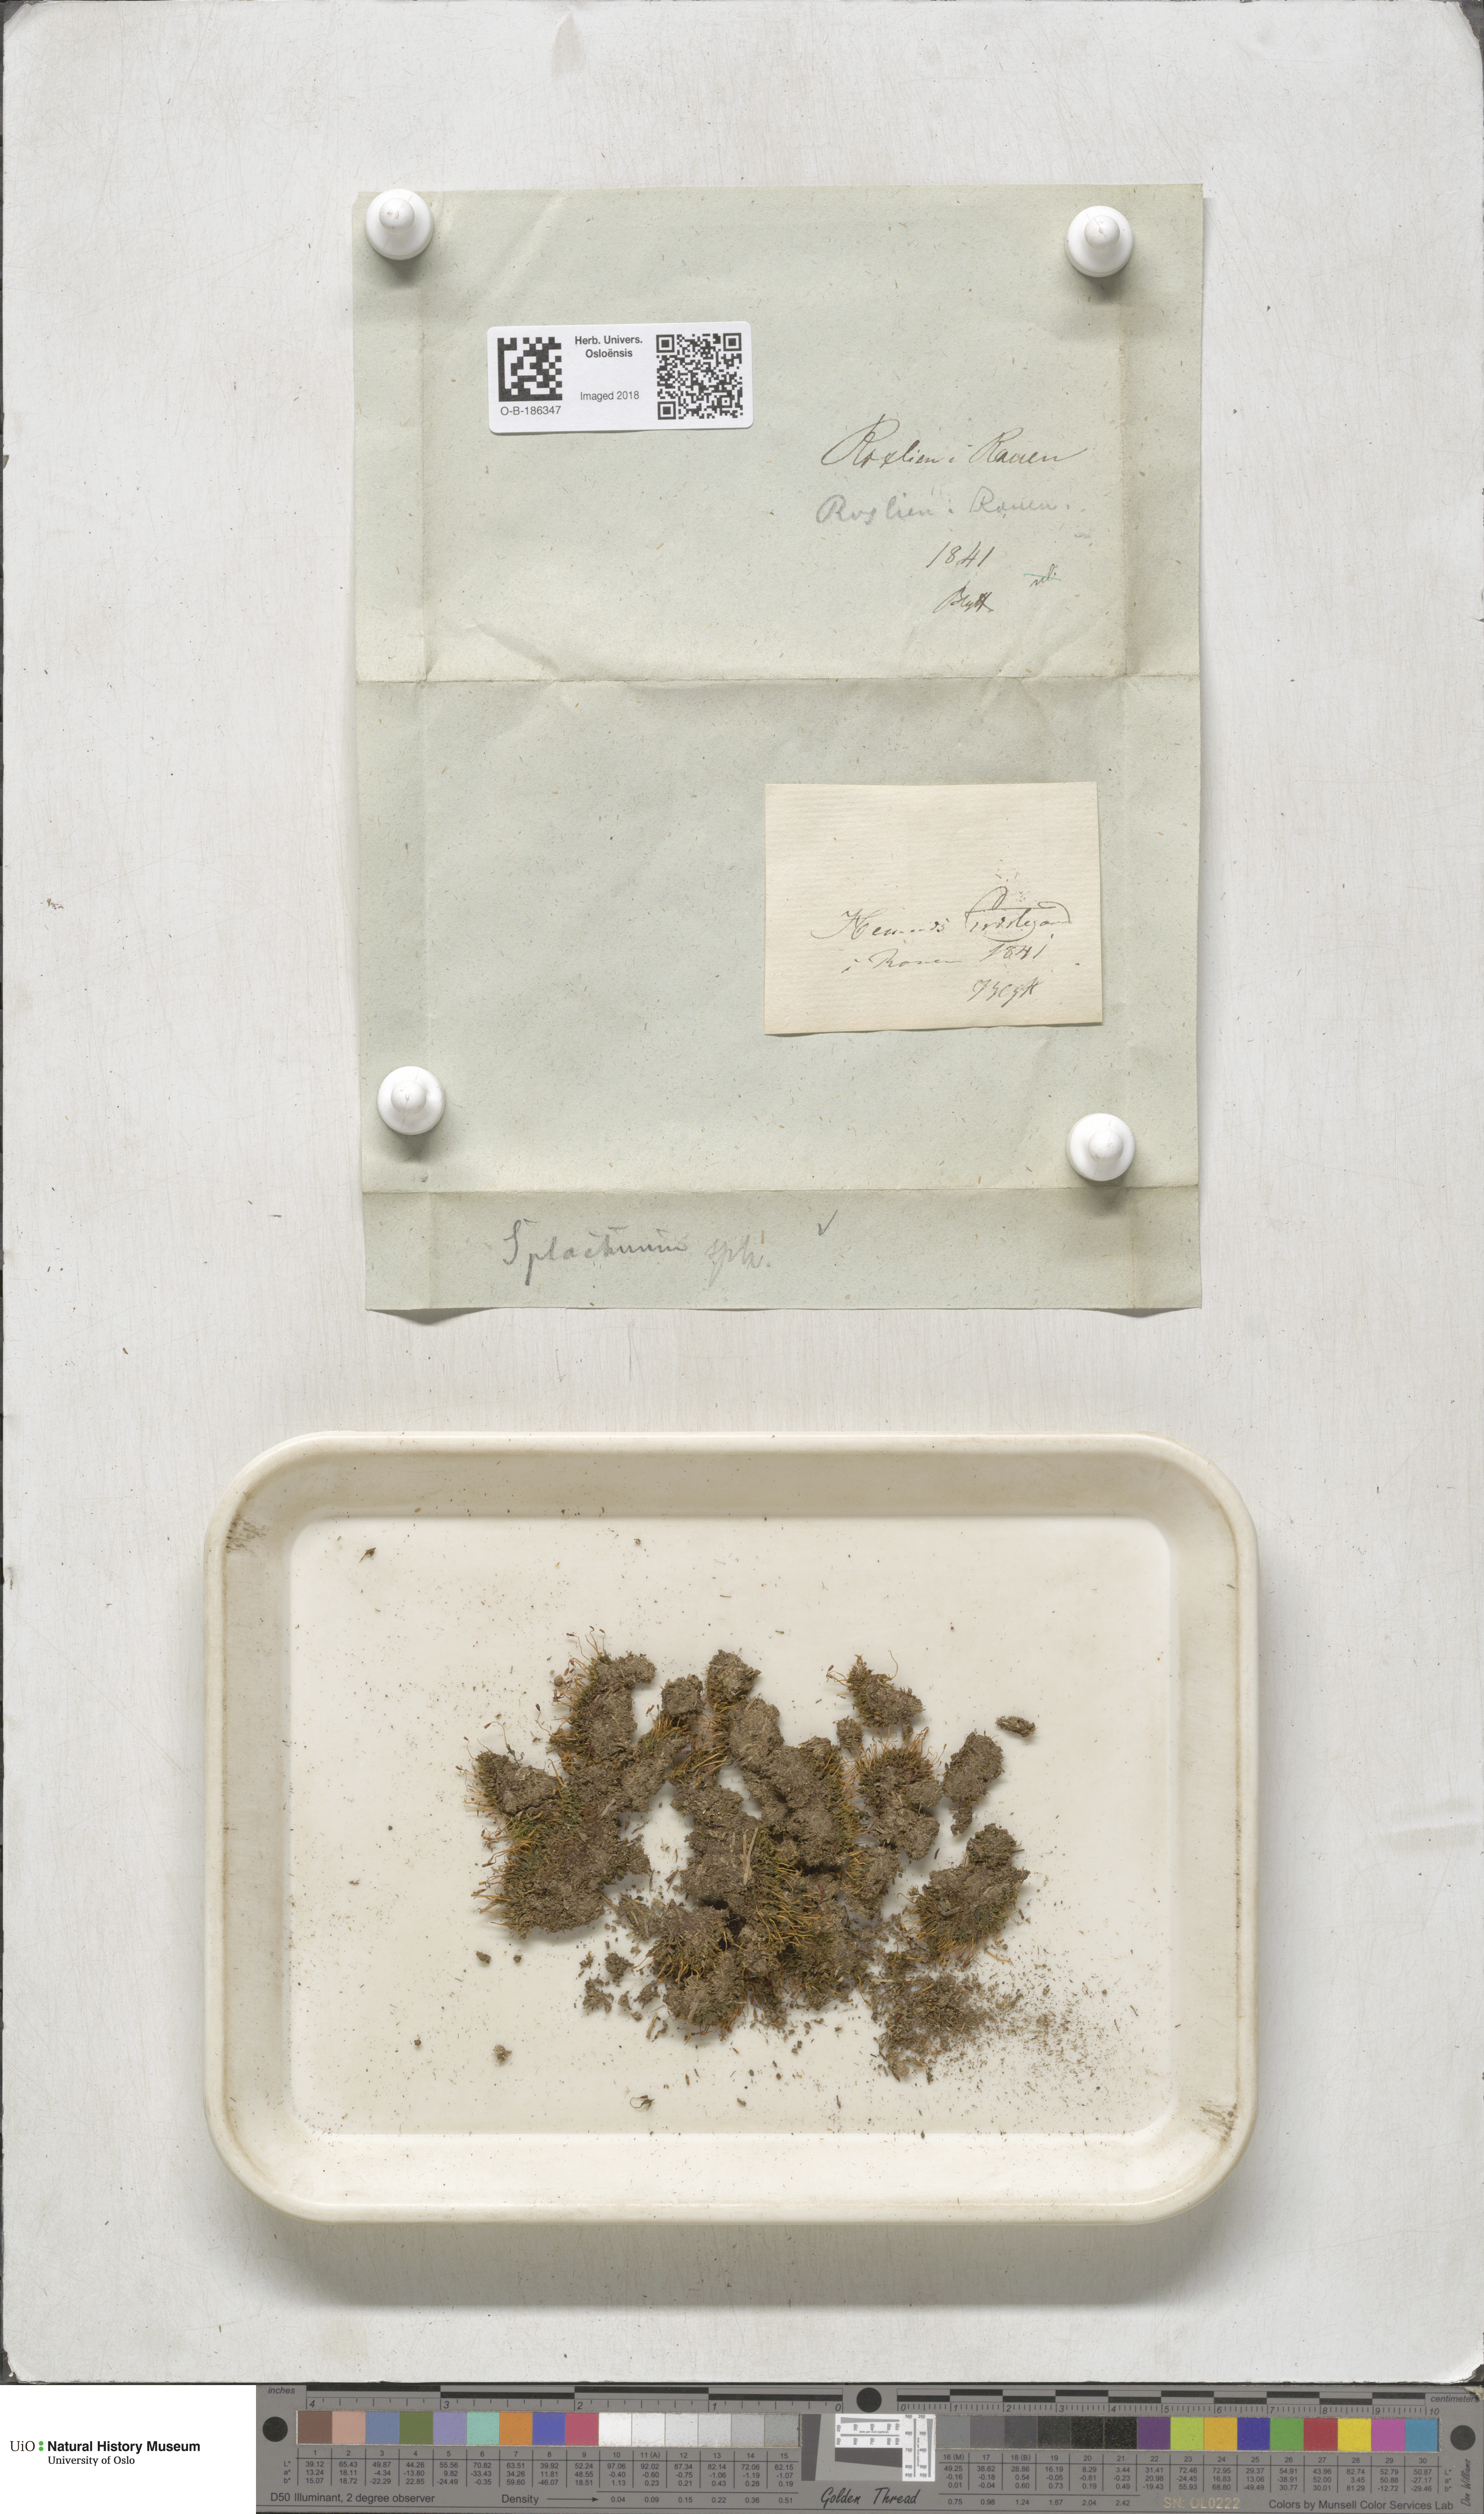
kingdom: Plantae
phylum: Bryophyta
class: Bryopsida
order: Splachnales
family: Splachnaceae
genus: Splachnum
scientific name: Splachnum sphaericum
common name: Round-fruited dung moss
